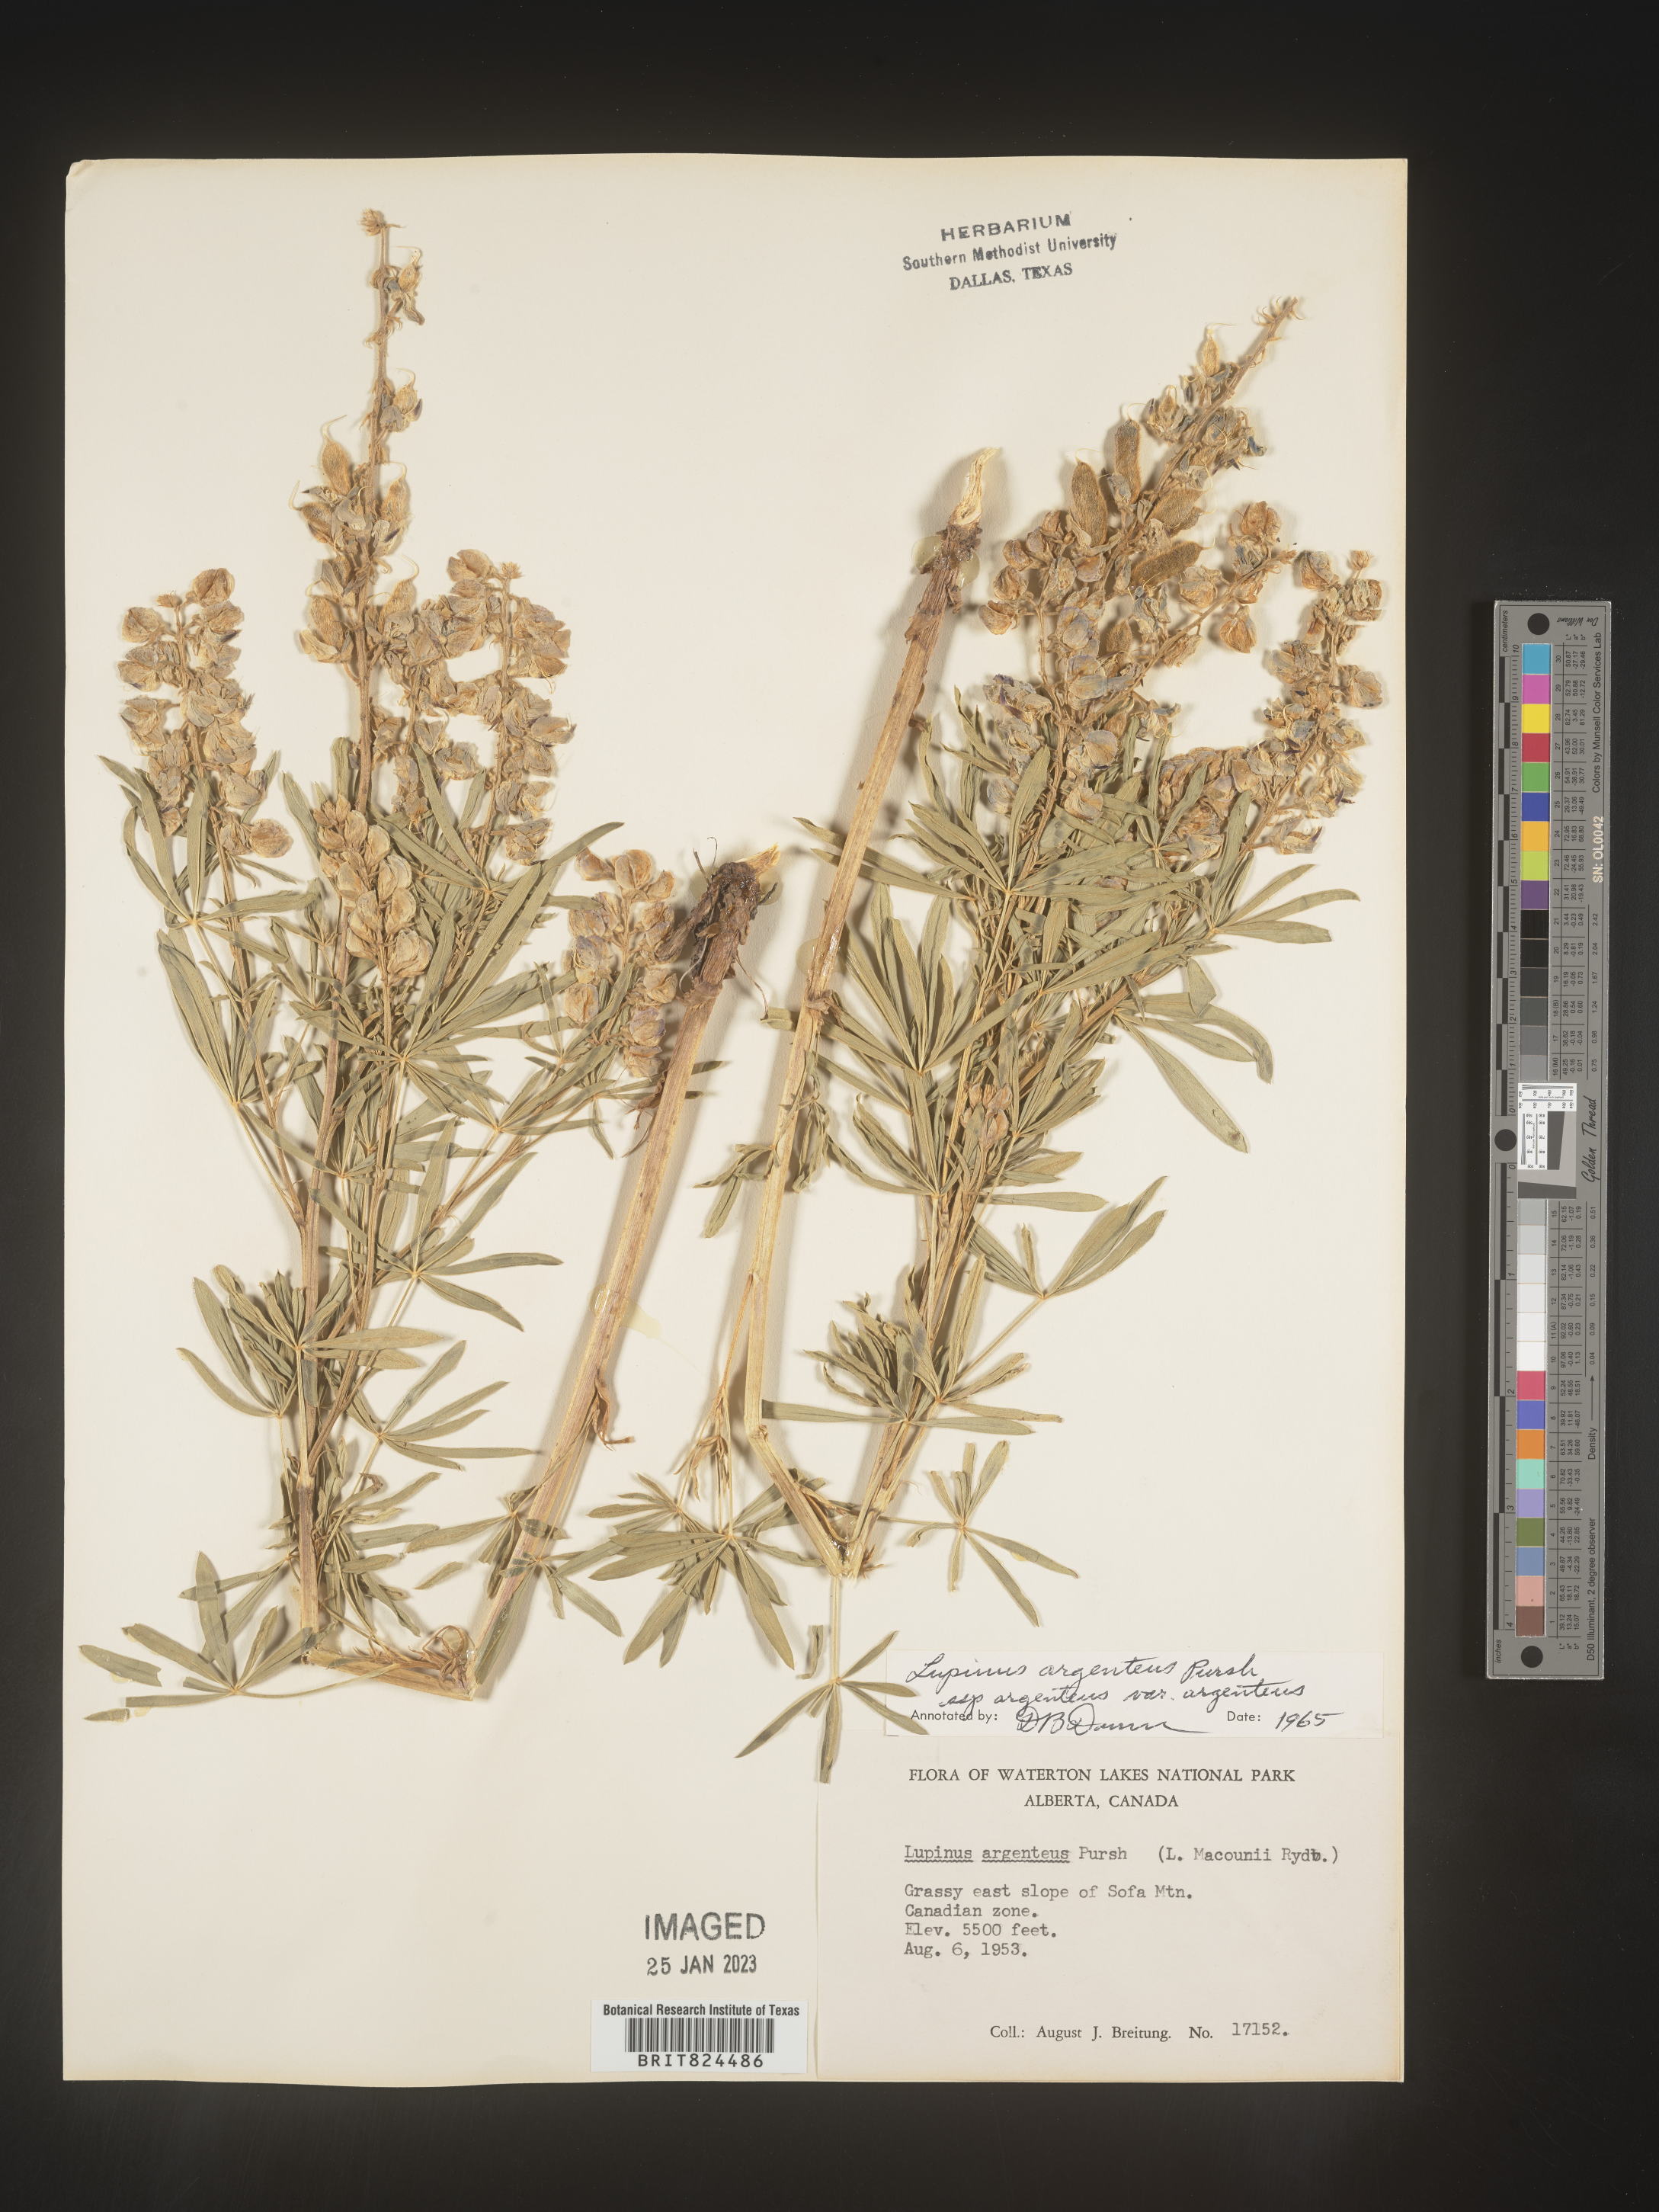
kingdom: Plantae
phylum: Tracheophyta
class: Magnoliopsida
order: Fabales
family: Fabaceae
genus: Lupinus
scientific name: Lupinus argenteus
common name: Silvery lupine
